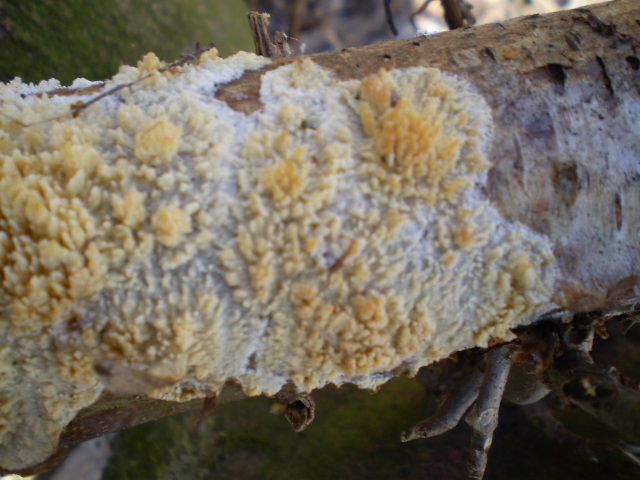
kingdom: Fungi
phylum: Basidiomycota
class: Agaricomycetes
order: Hymenochaetales
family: Schizoporaceae
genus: Xylodon
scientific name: Xylodon radula
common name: grovtandet kalkskind
